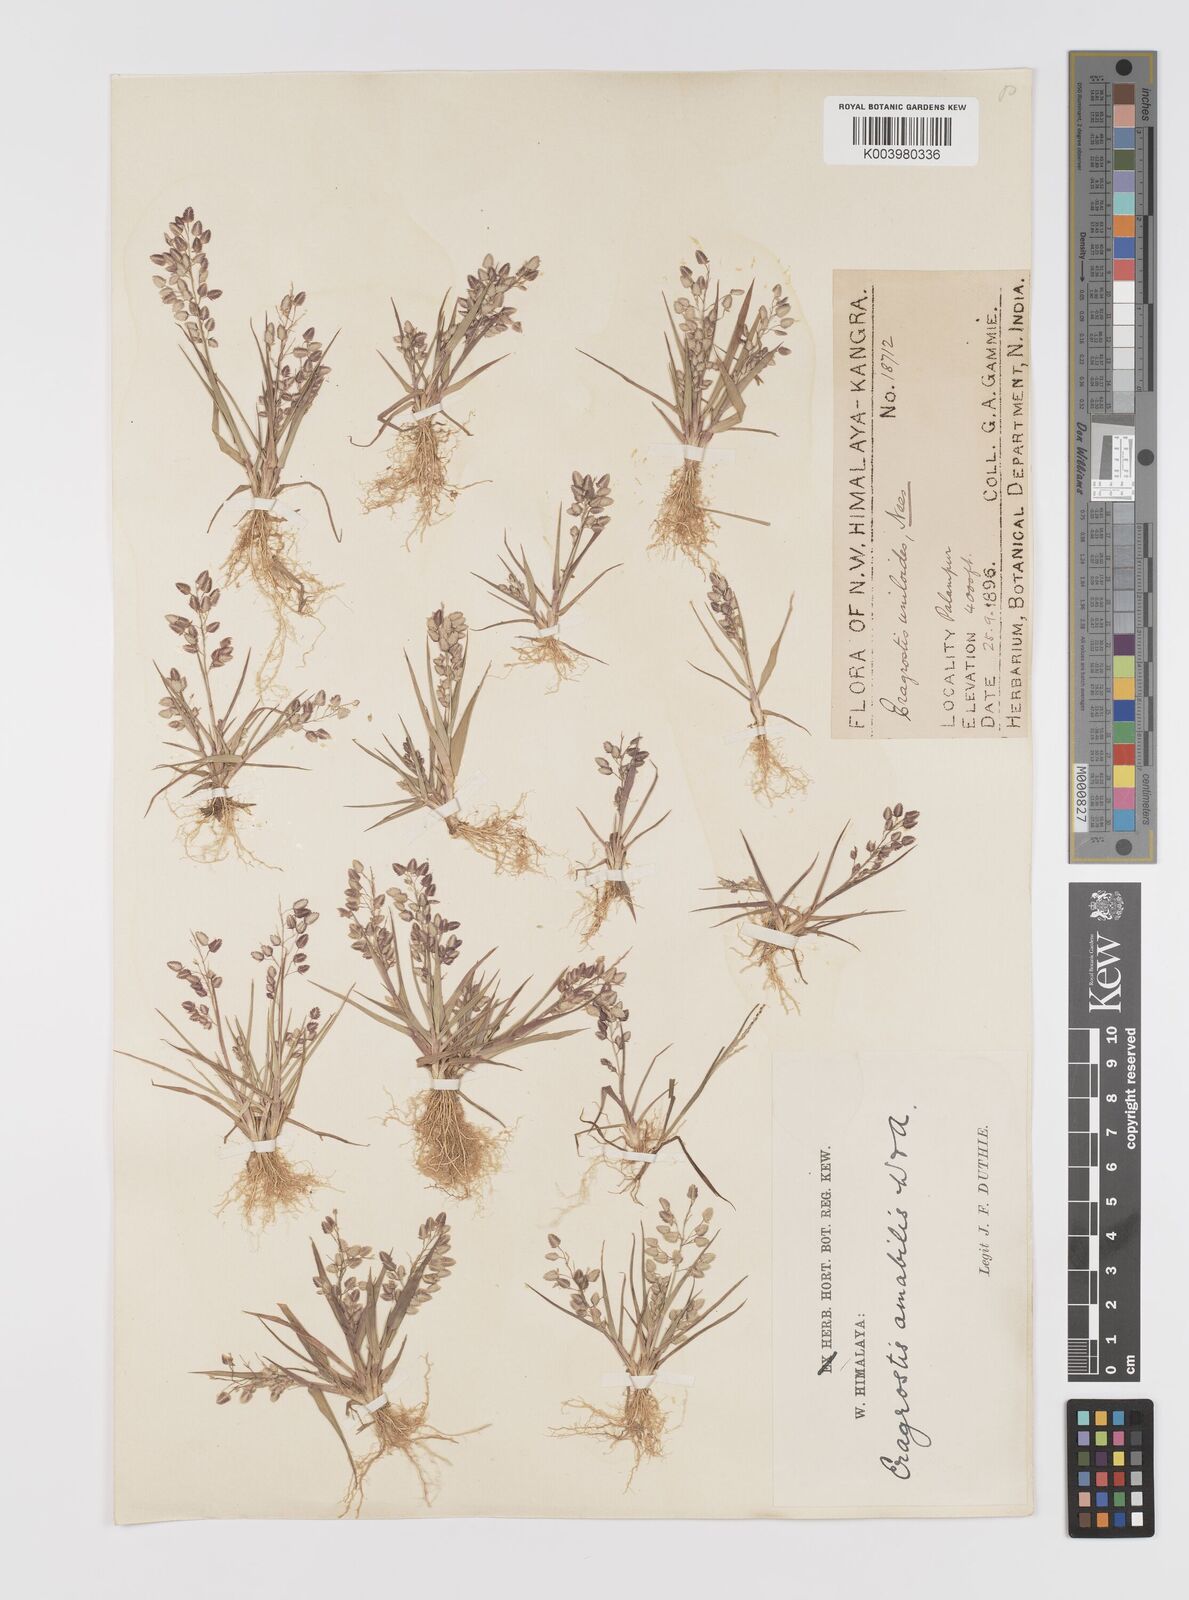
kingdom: Plantae
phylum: Tracheophyta
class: Liliopsida
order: Poales
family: Poaceae
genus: Eragrostis
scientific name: Eragrostis unioloides
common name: Chinese lovegrass
